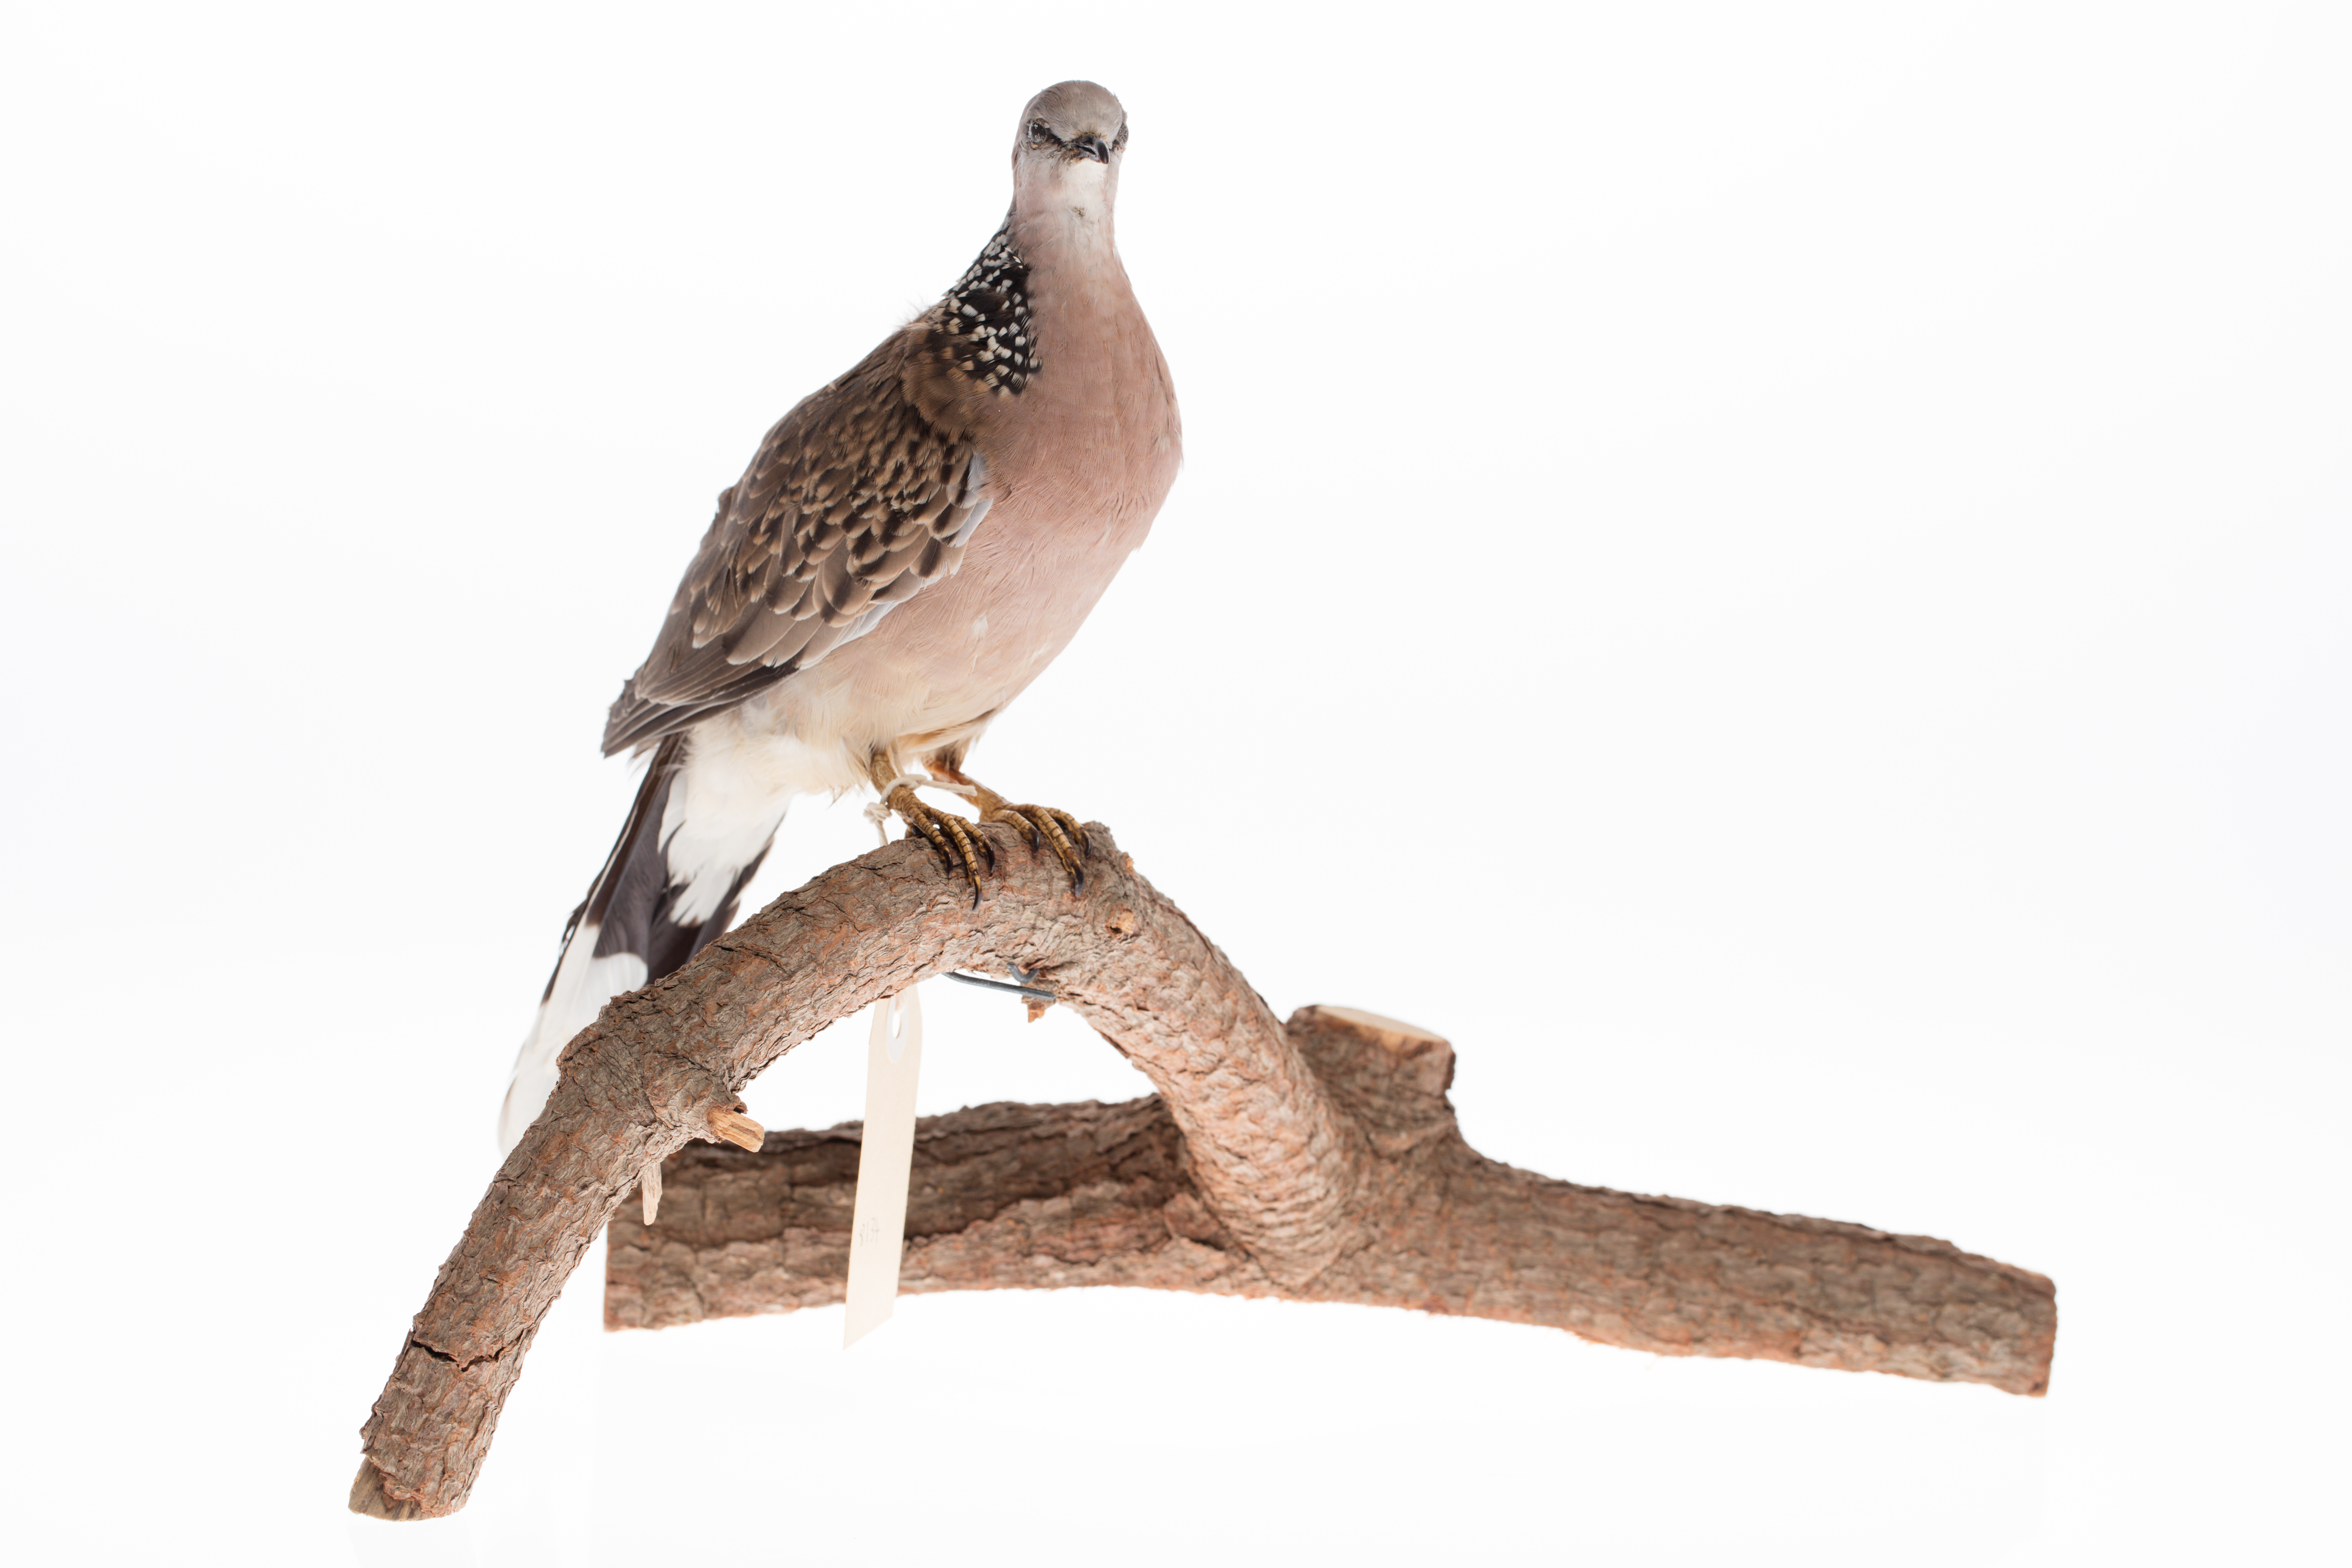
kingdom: Animalia
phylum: Chordata
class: Aves
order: Columbiformes
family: Columbidae
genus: Spilopelia
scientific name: Spilopelia chinensis
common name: Spotted dove
